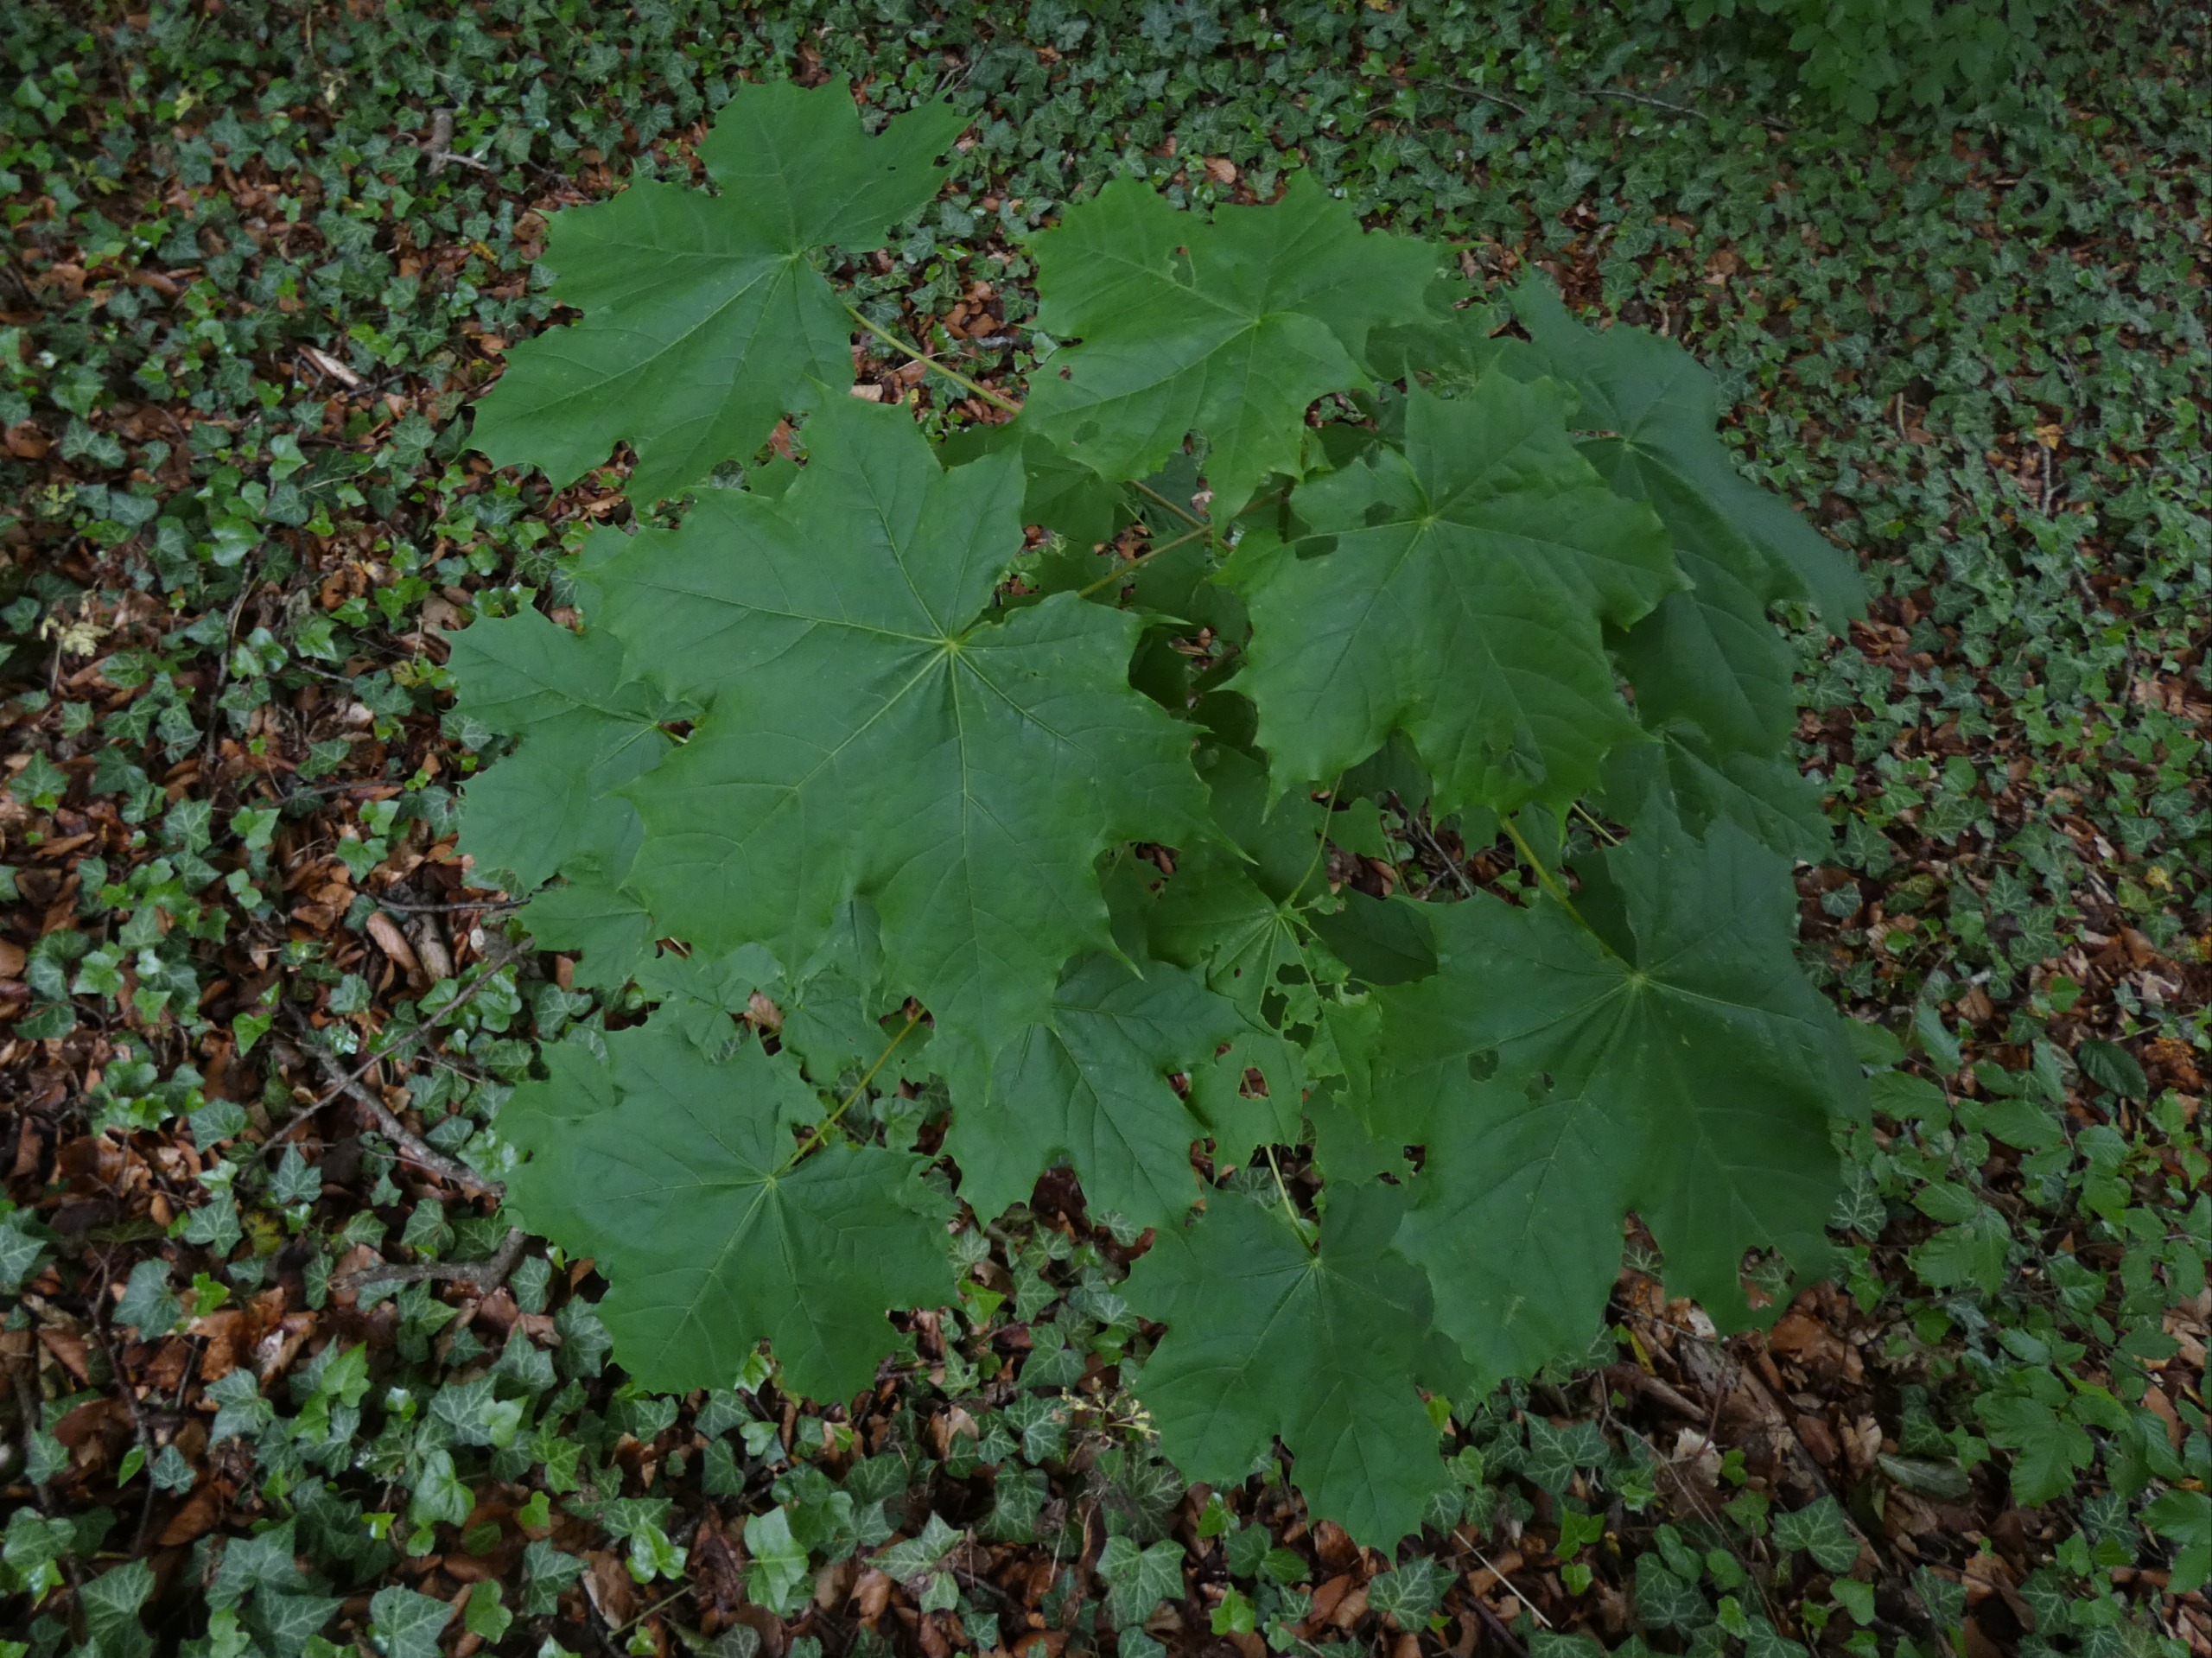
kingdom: Plantae
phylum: Tracheophyta
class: Magnoliopsida
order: Sapindales
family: Sapindaceae
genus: Acer
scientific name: Acer platanoides
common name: Spids-løn
